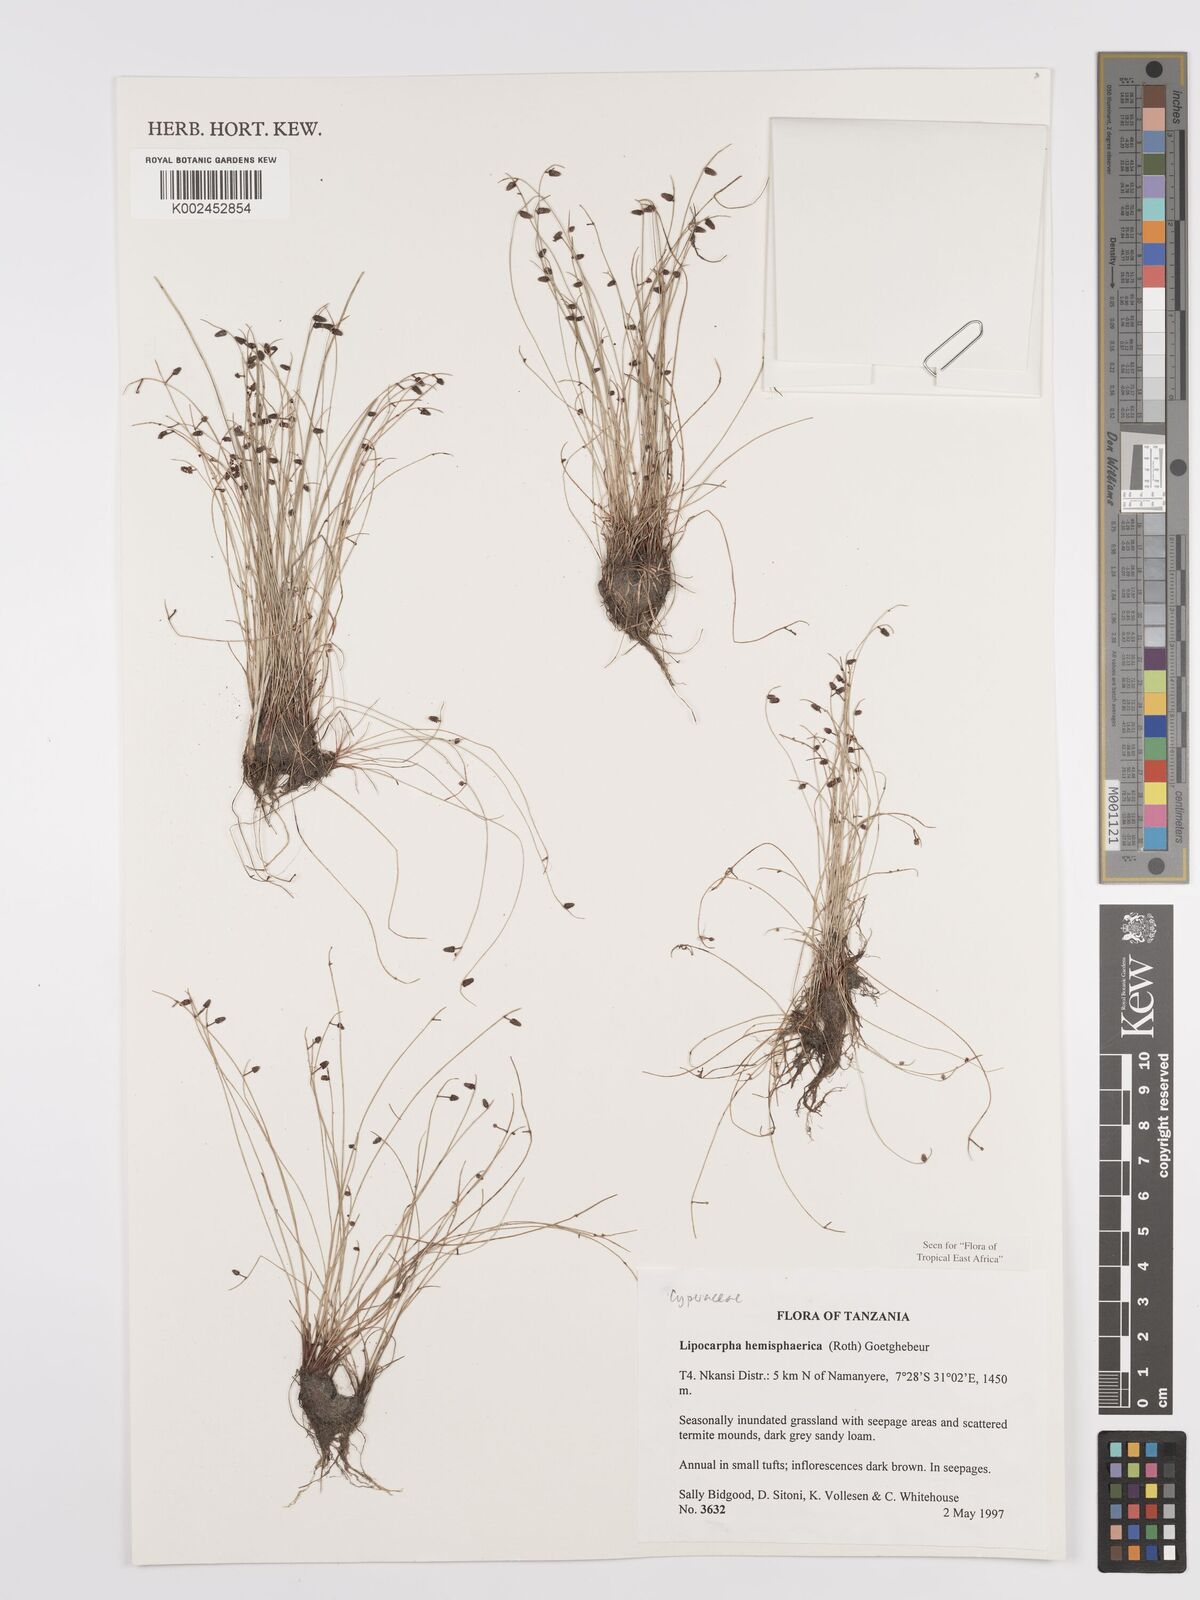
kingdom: Plantae
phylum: Tracheophyta
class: Liliopsida
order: Poales
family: Cyperaceae
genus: Cyperus
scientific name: Cyperus hemisphaericus
